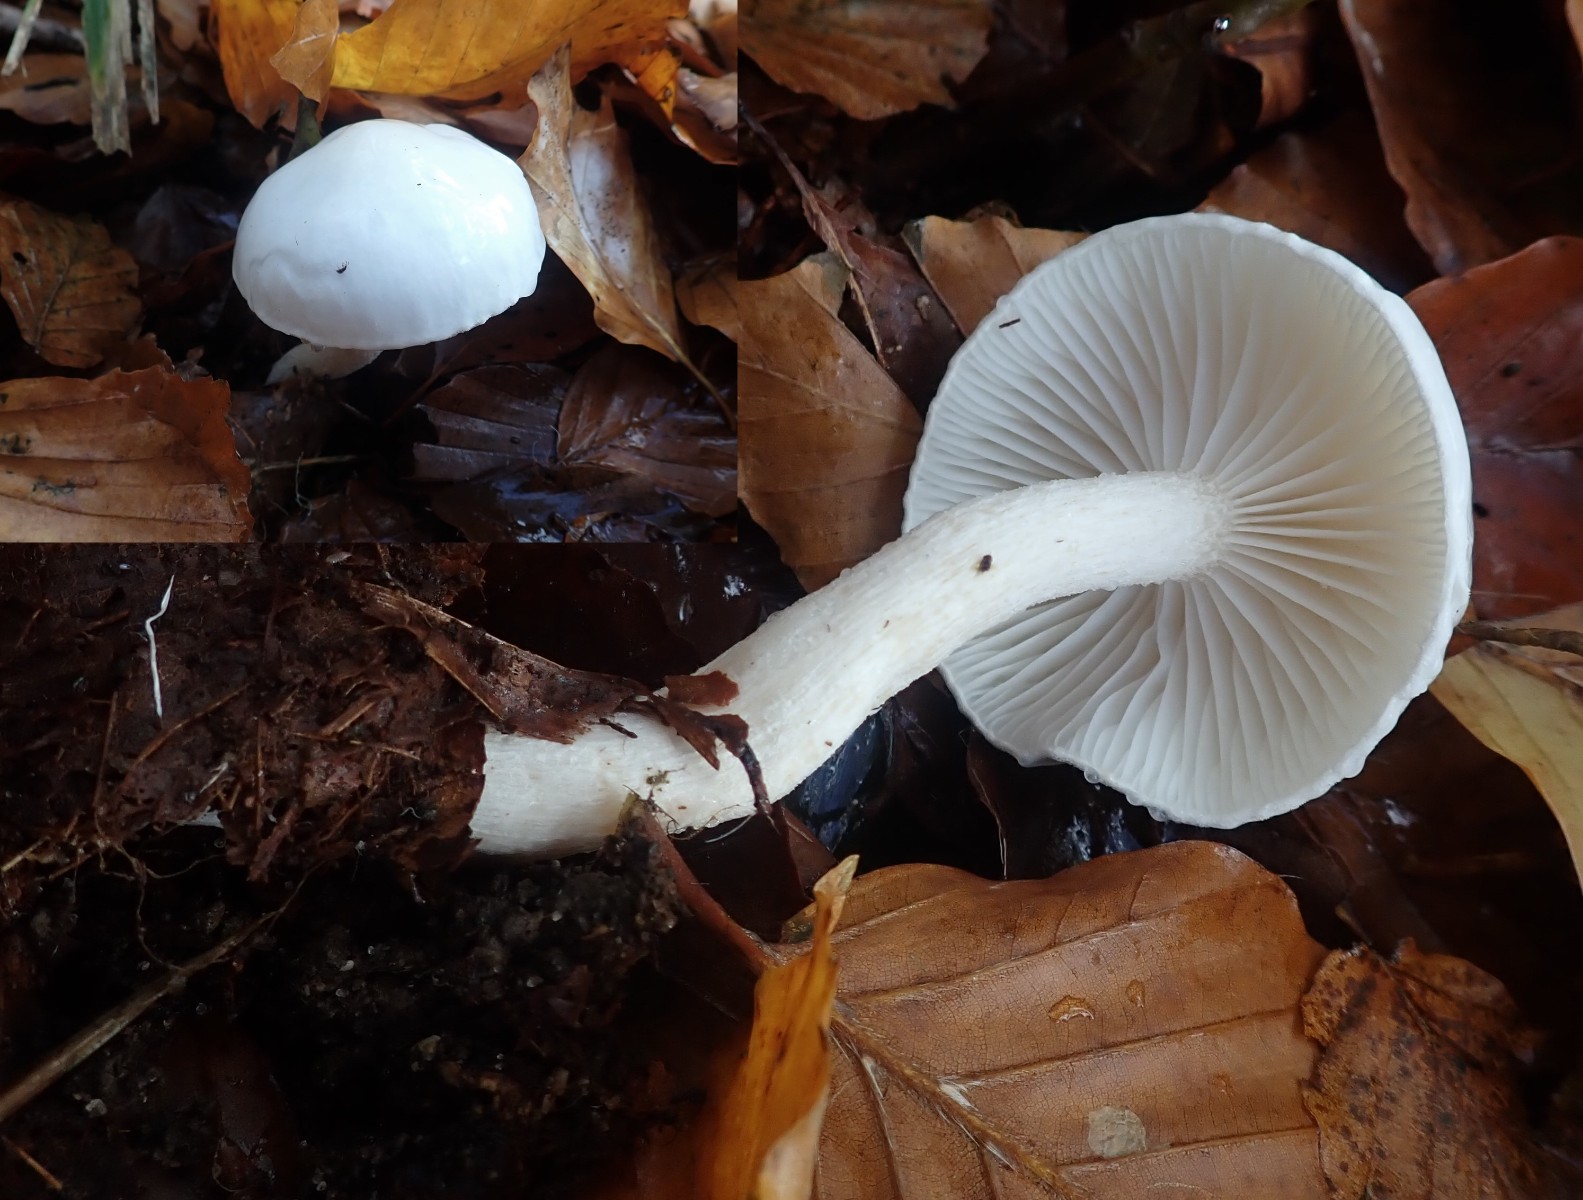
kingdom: Fungi
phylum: Basidiomycota
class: Agaricomycetes
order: Agaricales
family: Hygrophoraceae
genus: Hygrophorus
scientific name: Hygrophorus eburneus
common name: elfenbens-sneglehat
